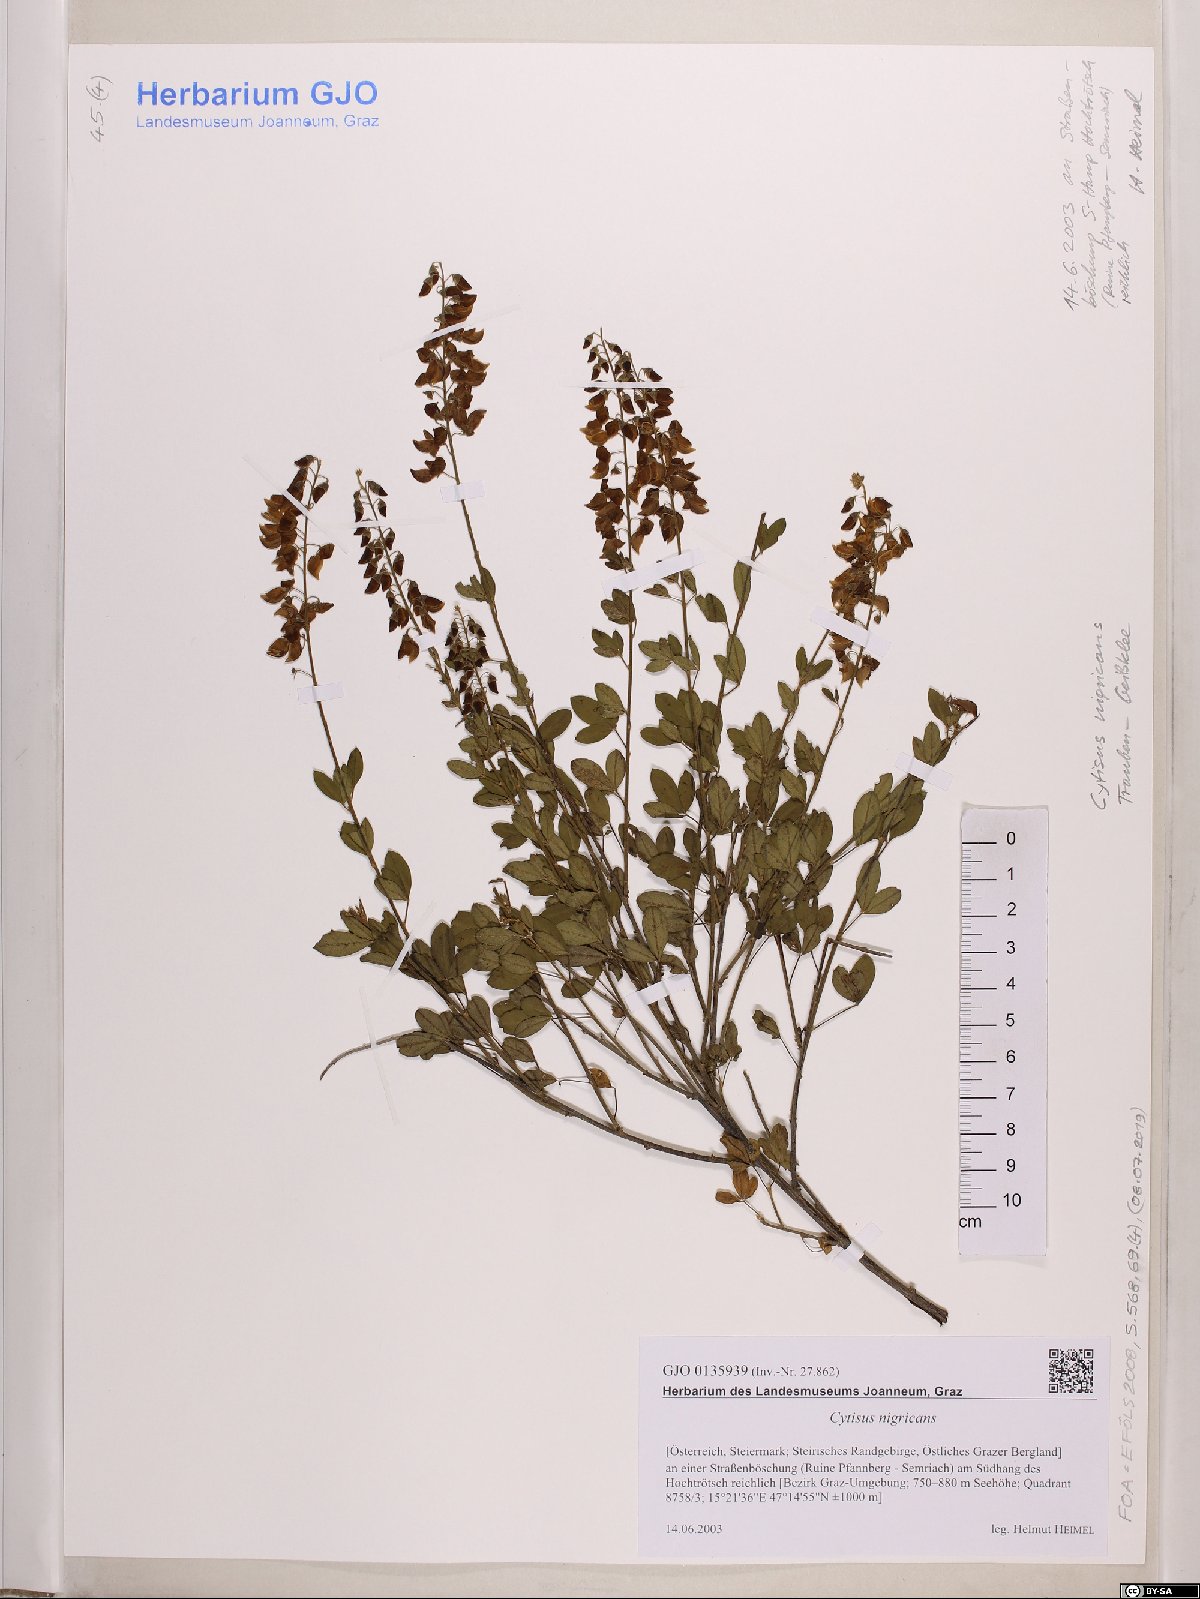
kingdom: Plantae
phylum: Tracheophyta
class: Magnoliopsida
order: Fabales
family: Fabaceae
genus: Cytisus
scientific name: Cytisus nigricans
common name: Black broom
